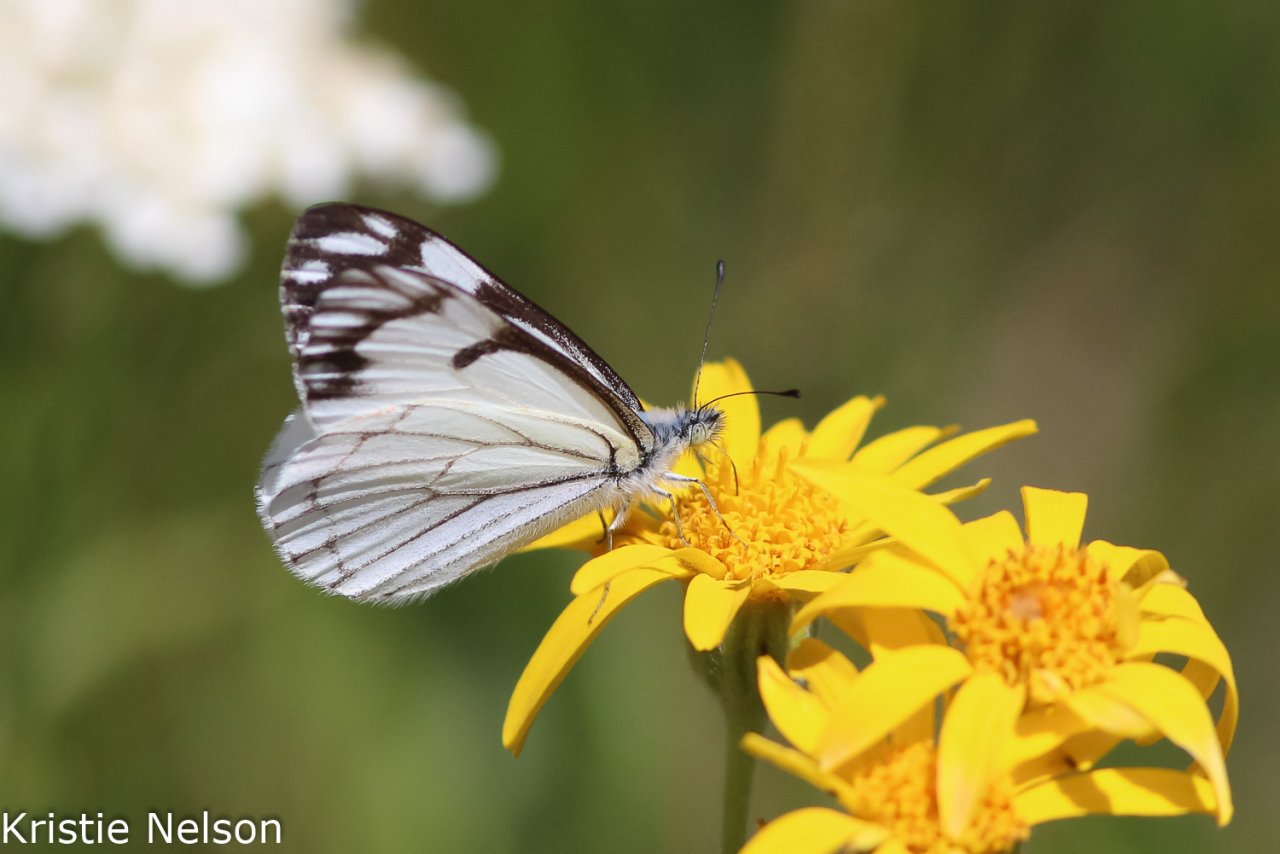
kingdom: Animalia
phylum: Arthropoda
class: Insecta
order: Lepidoptera
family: Pieridae
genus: Neophasia
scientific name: Neophasia menapia
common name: Pine White
